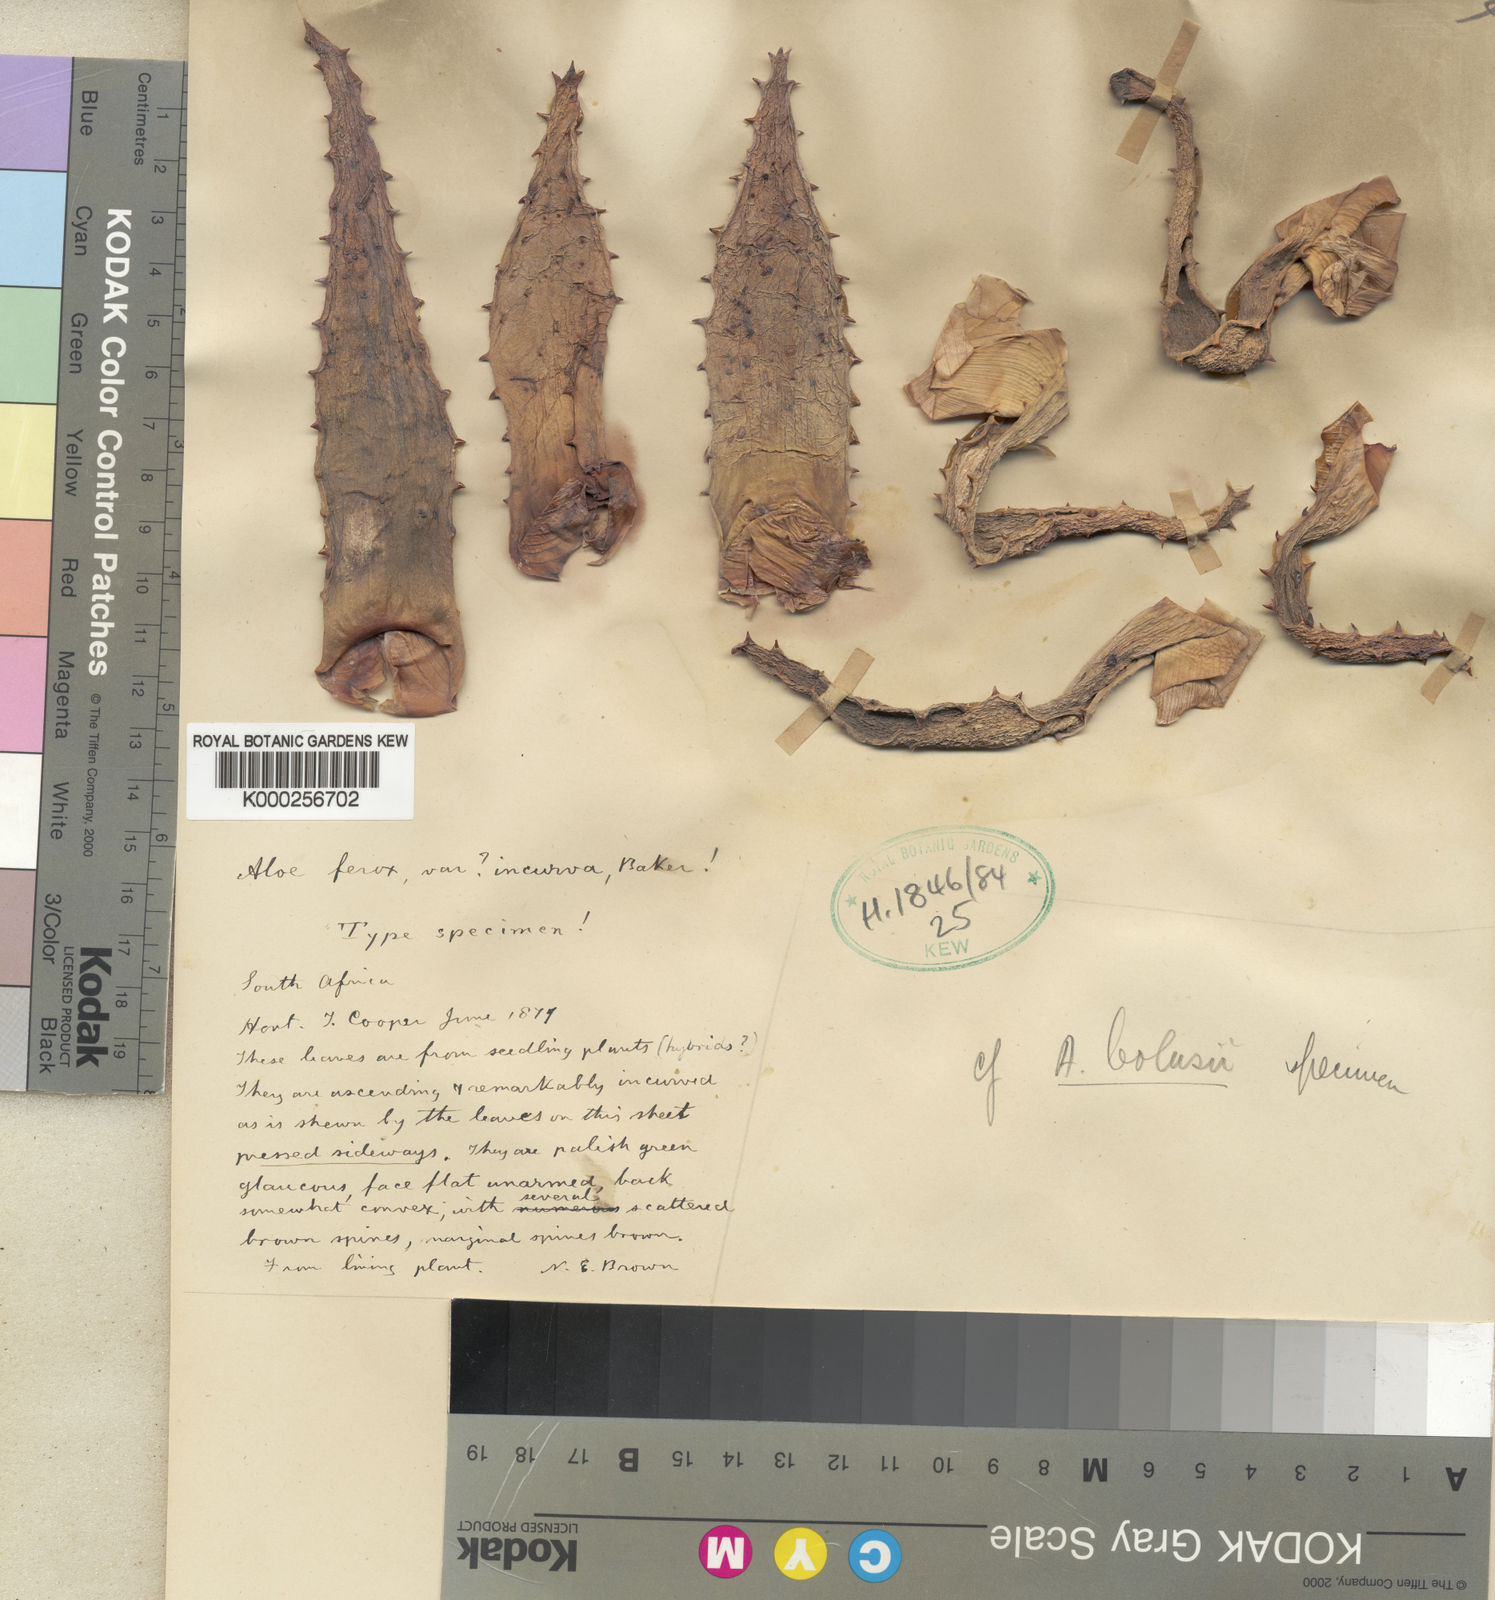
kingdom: Plantae
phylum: Tracheophyta
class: Liliopsida
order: Asparagales
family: Asphodelaceae
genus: Aloe
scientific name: Aloe ferox
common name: Bitter aloe
